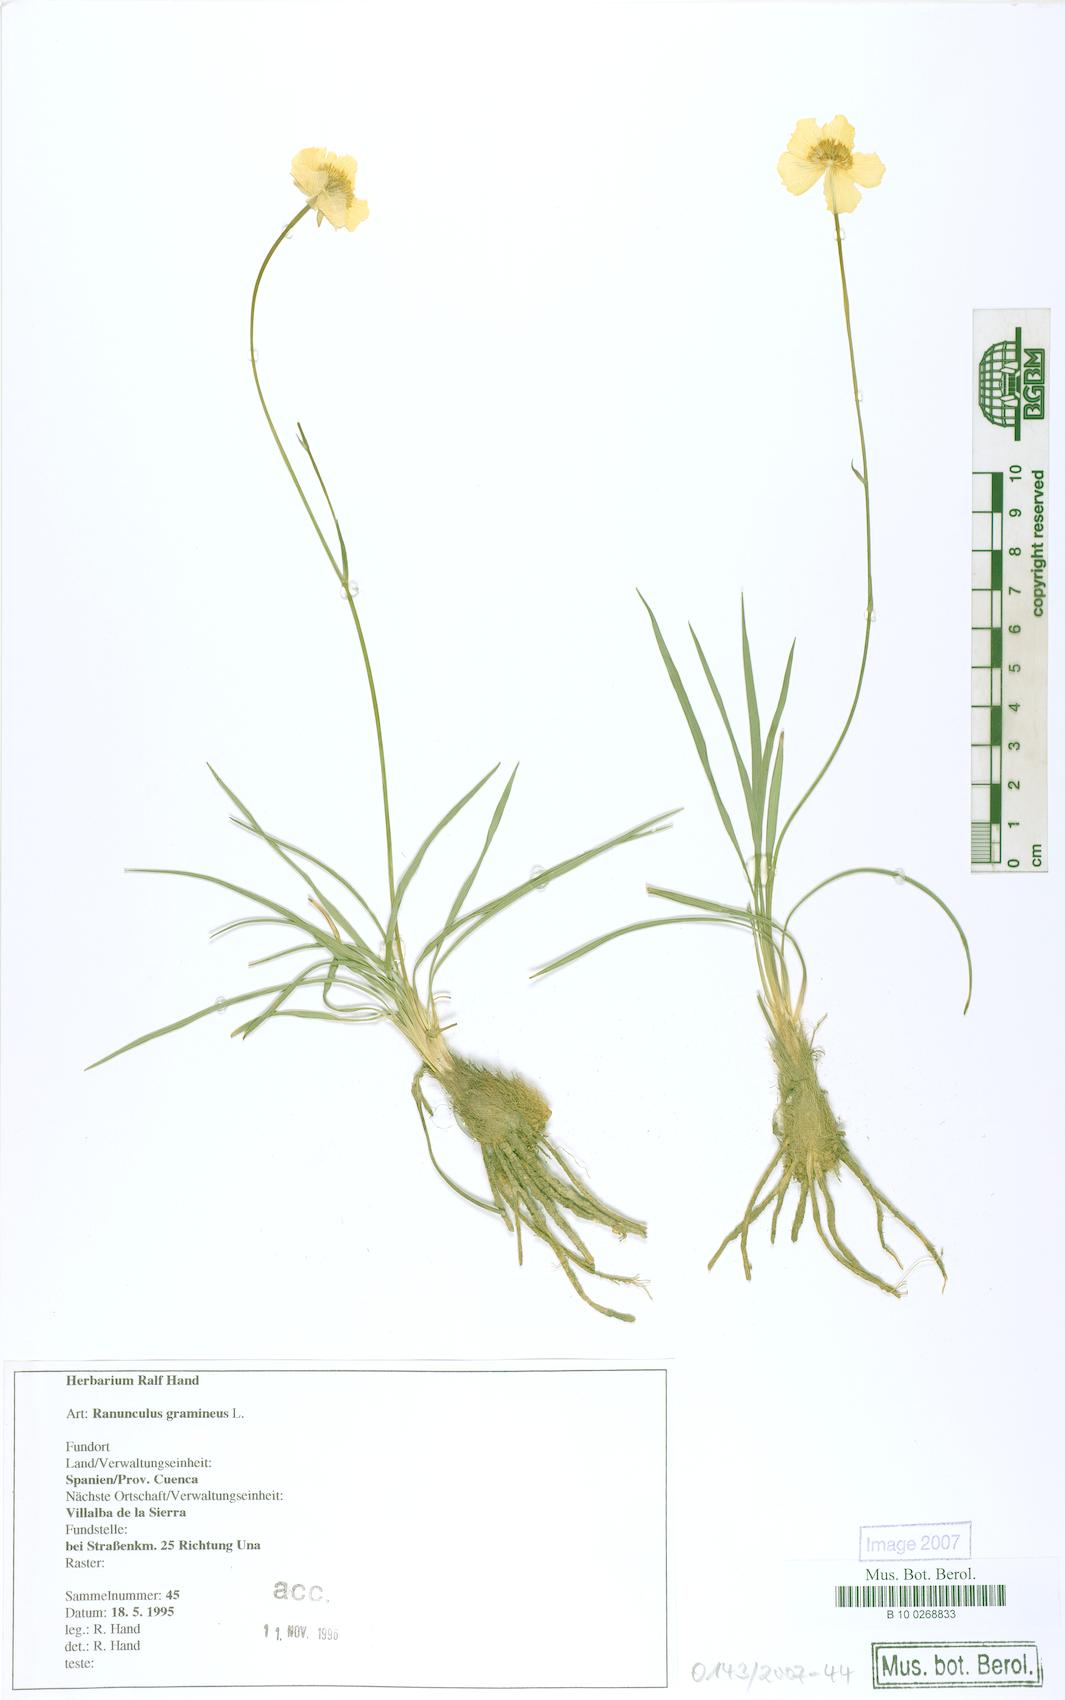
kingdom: Plantae
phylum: Tracheophyta
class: Magnoliopsida
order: Ranunculales
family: Ranunculaceae
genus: Ranunculus
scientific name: Ranunculus gramineus
